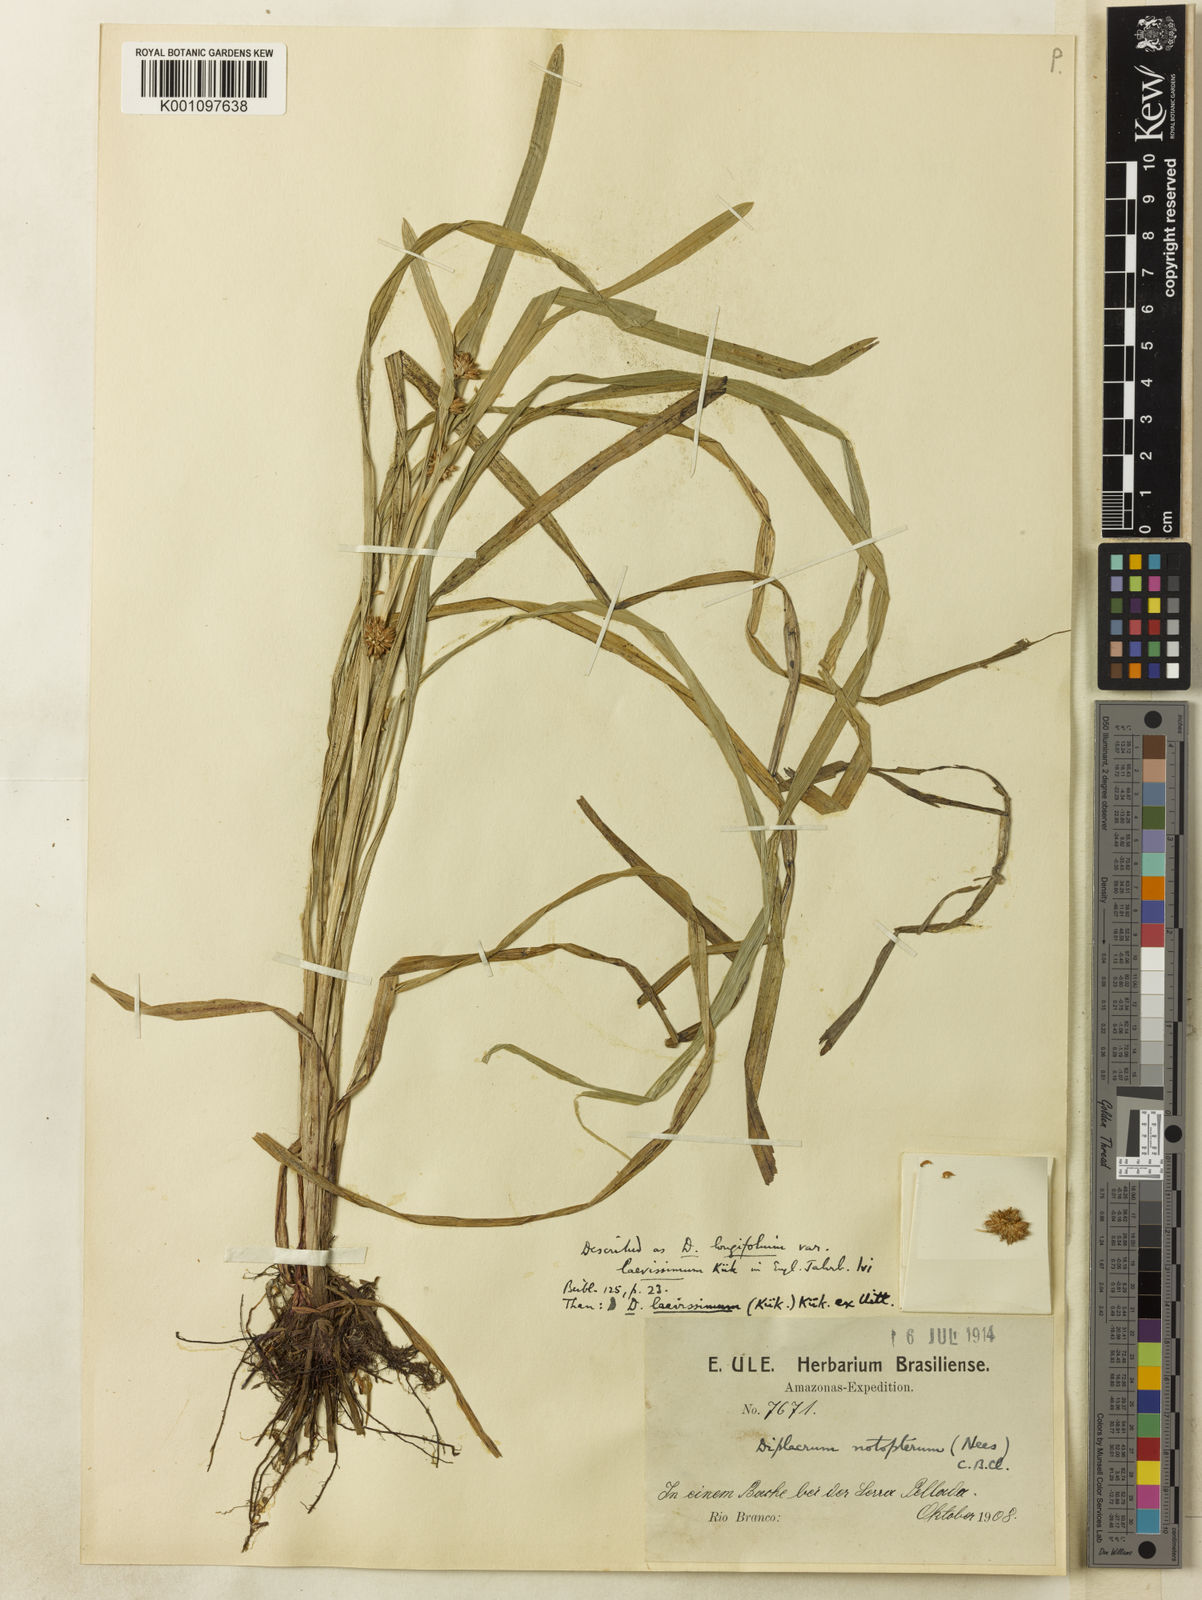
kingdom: Plantae
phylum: Tracheophyta
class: Liliopsida
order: Poales
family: Cyperaceae
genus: Diplacrum
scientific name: Diplacrum
